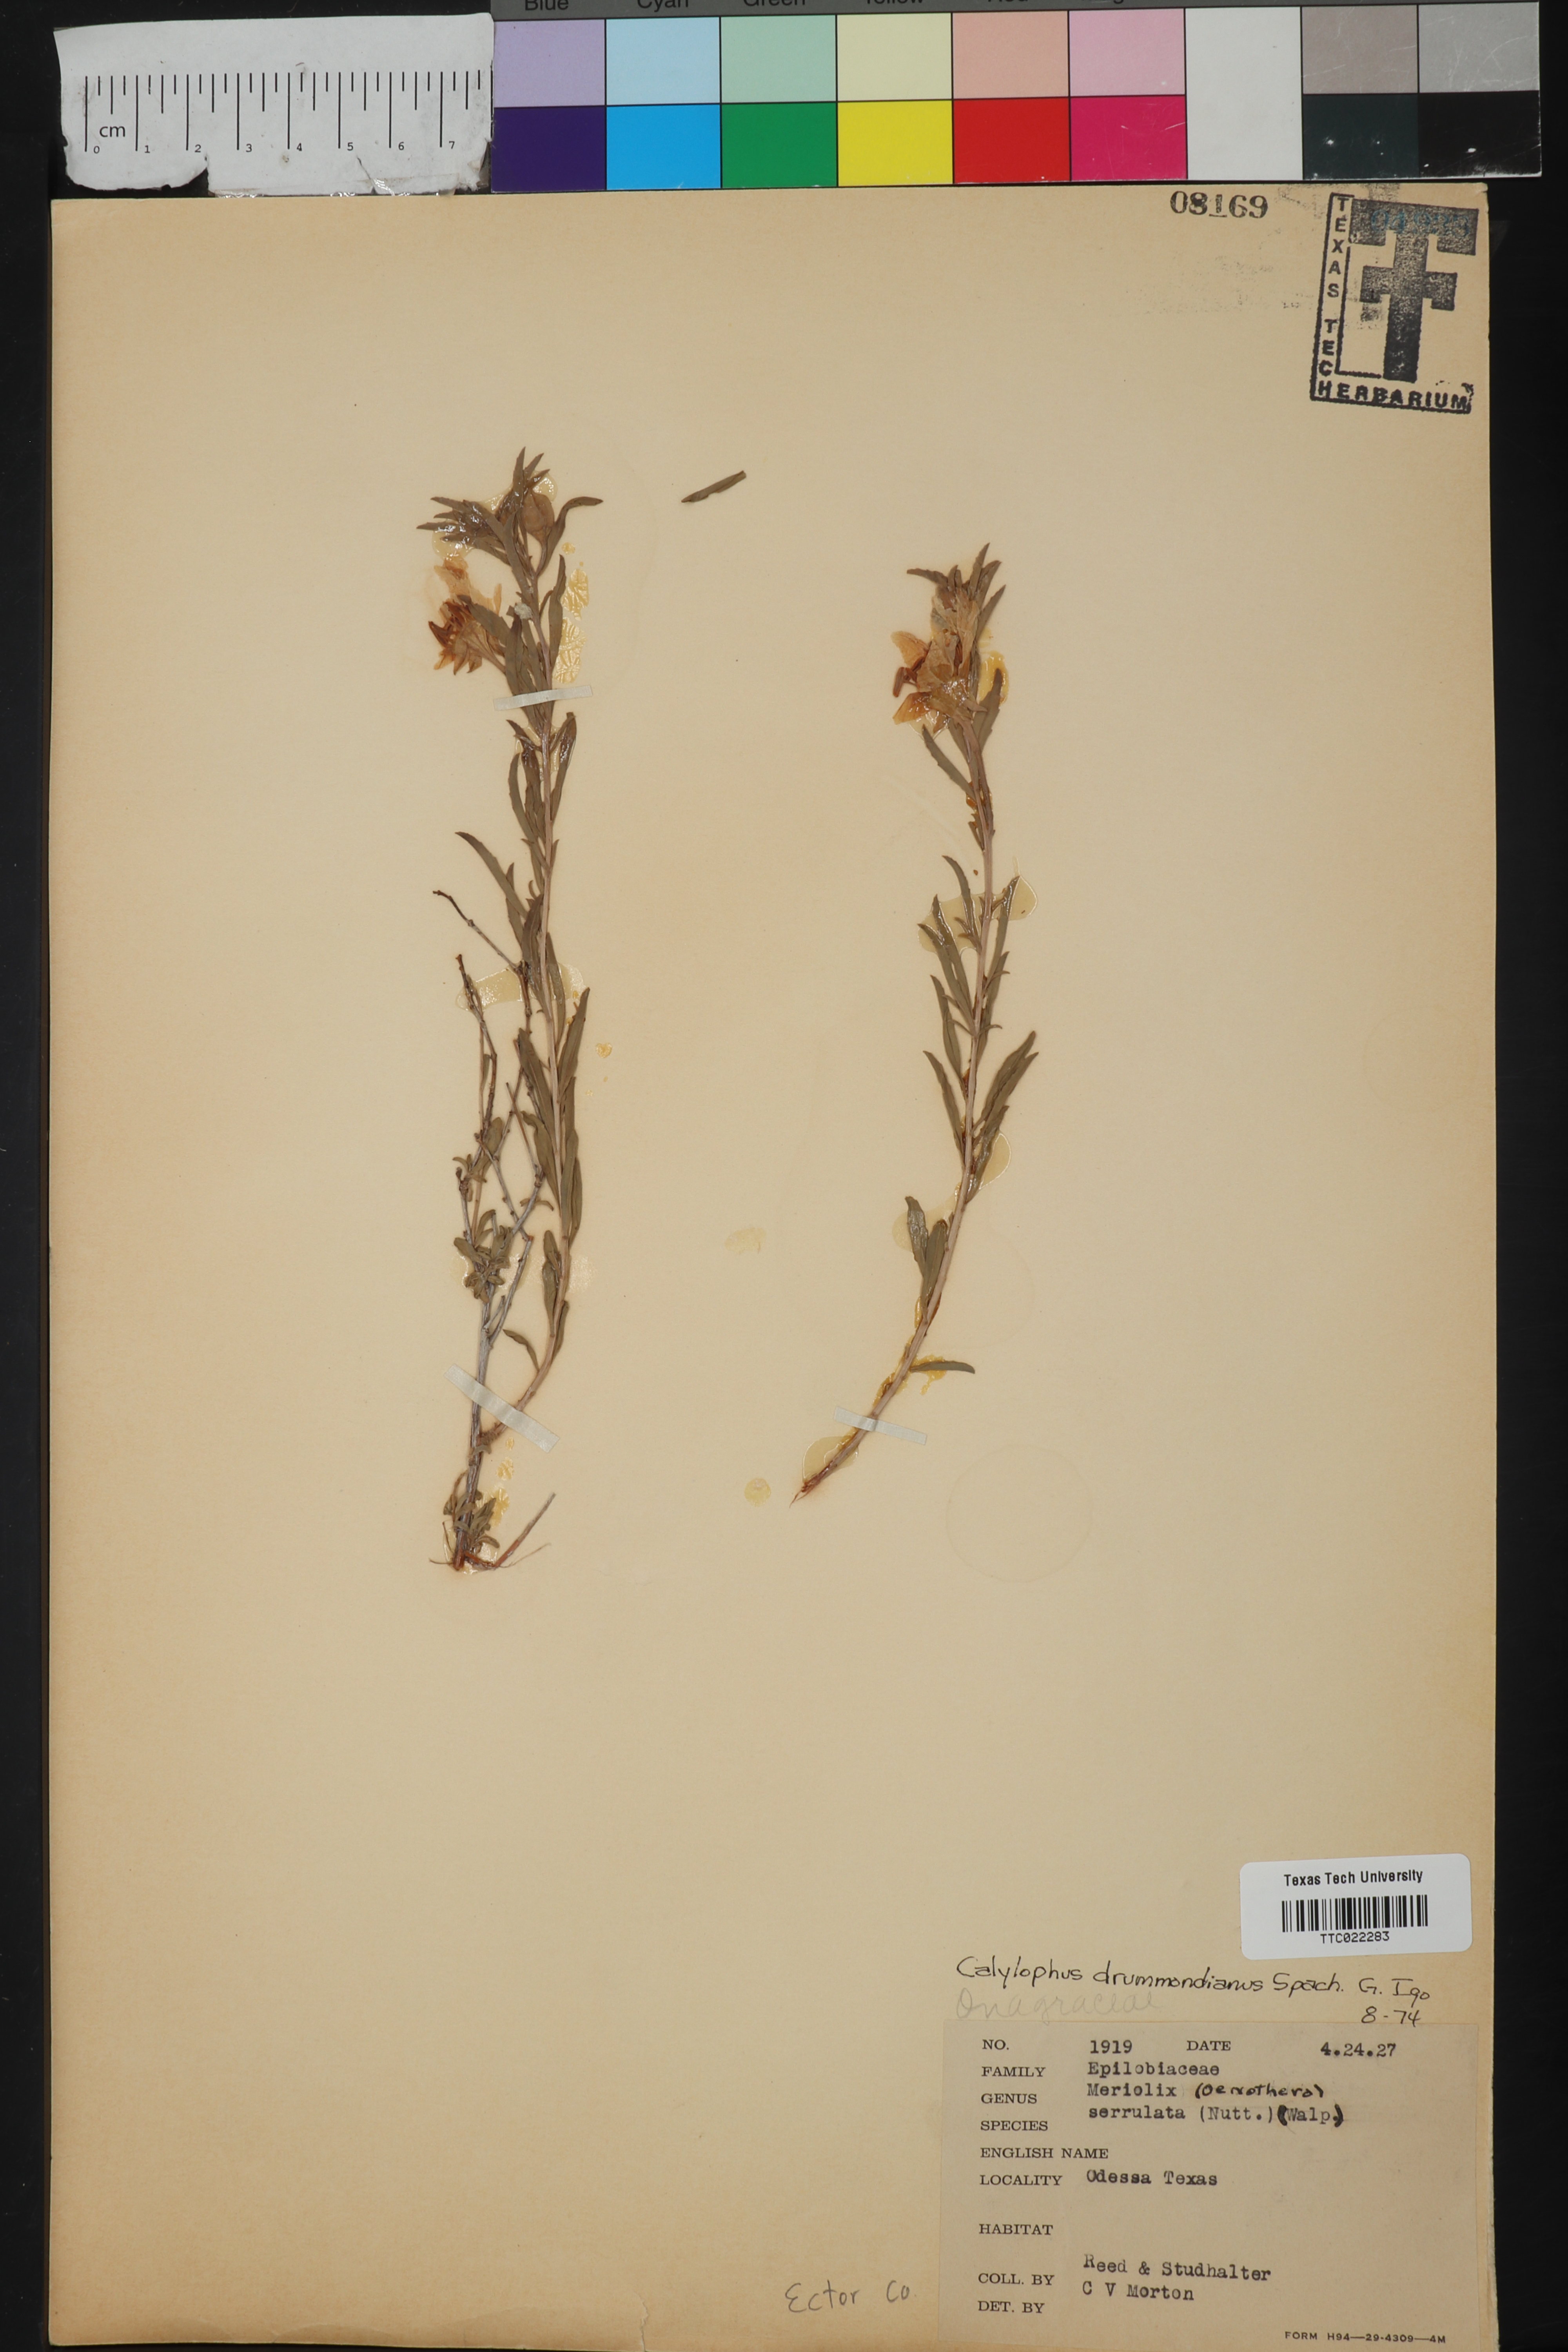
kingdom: Plantae
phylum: Tracheophyta
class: Magnoliopsida
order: Myrtales
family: Onagraceae
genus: Oenothera
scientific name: Oenothera serrulata
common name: Half-shrub calylophus
